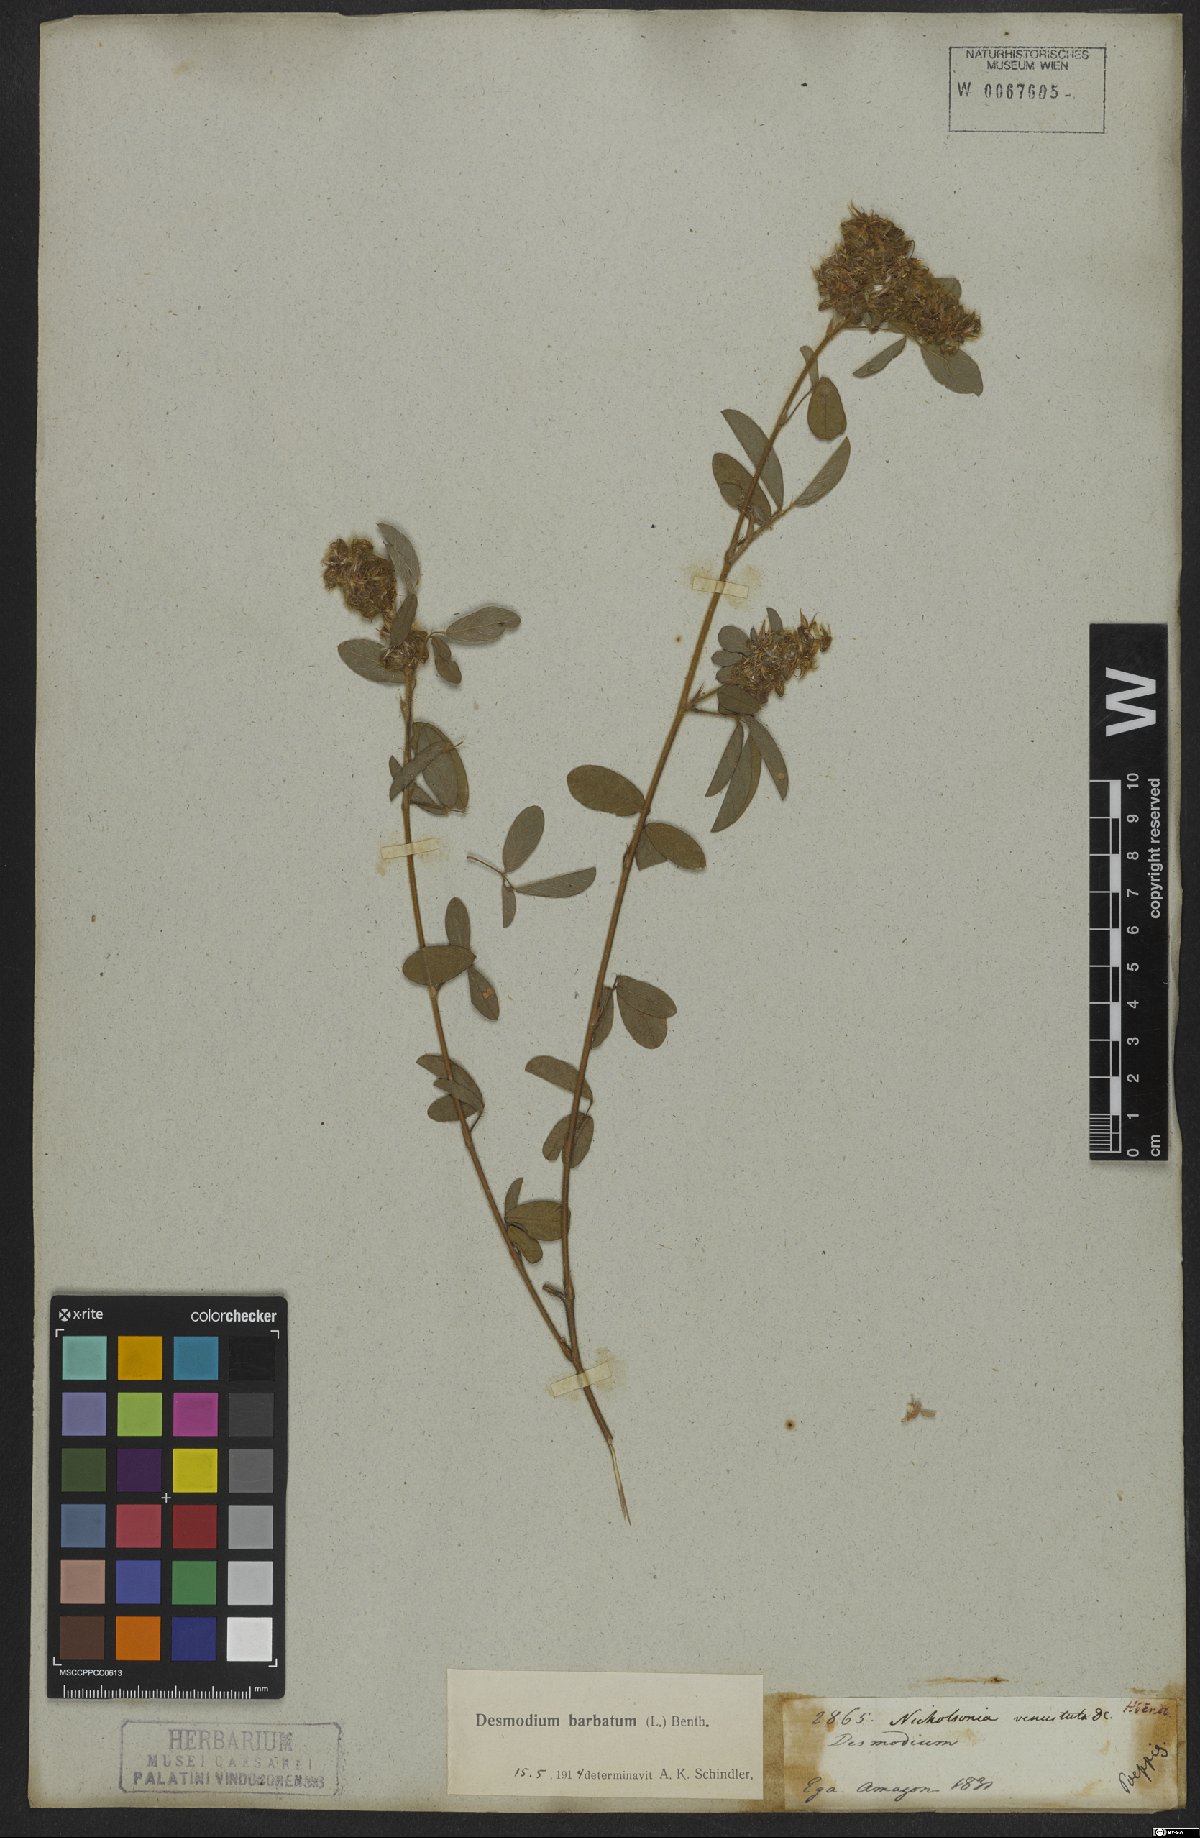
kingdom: Plantae
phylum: Tracheophyta
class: Magnoliopsida
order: Fabales
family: Fabaceae
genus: Grona
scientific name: Grona barbata
